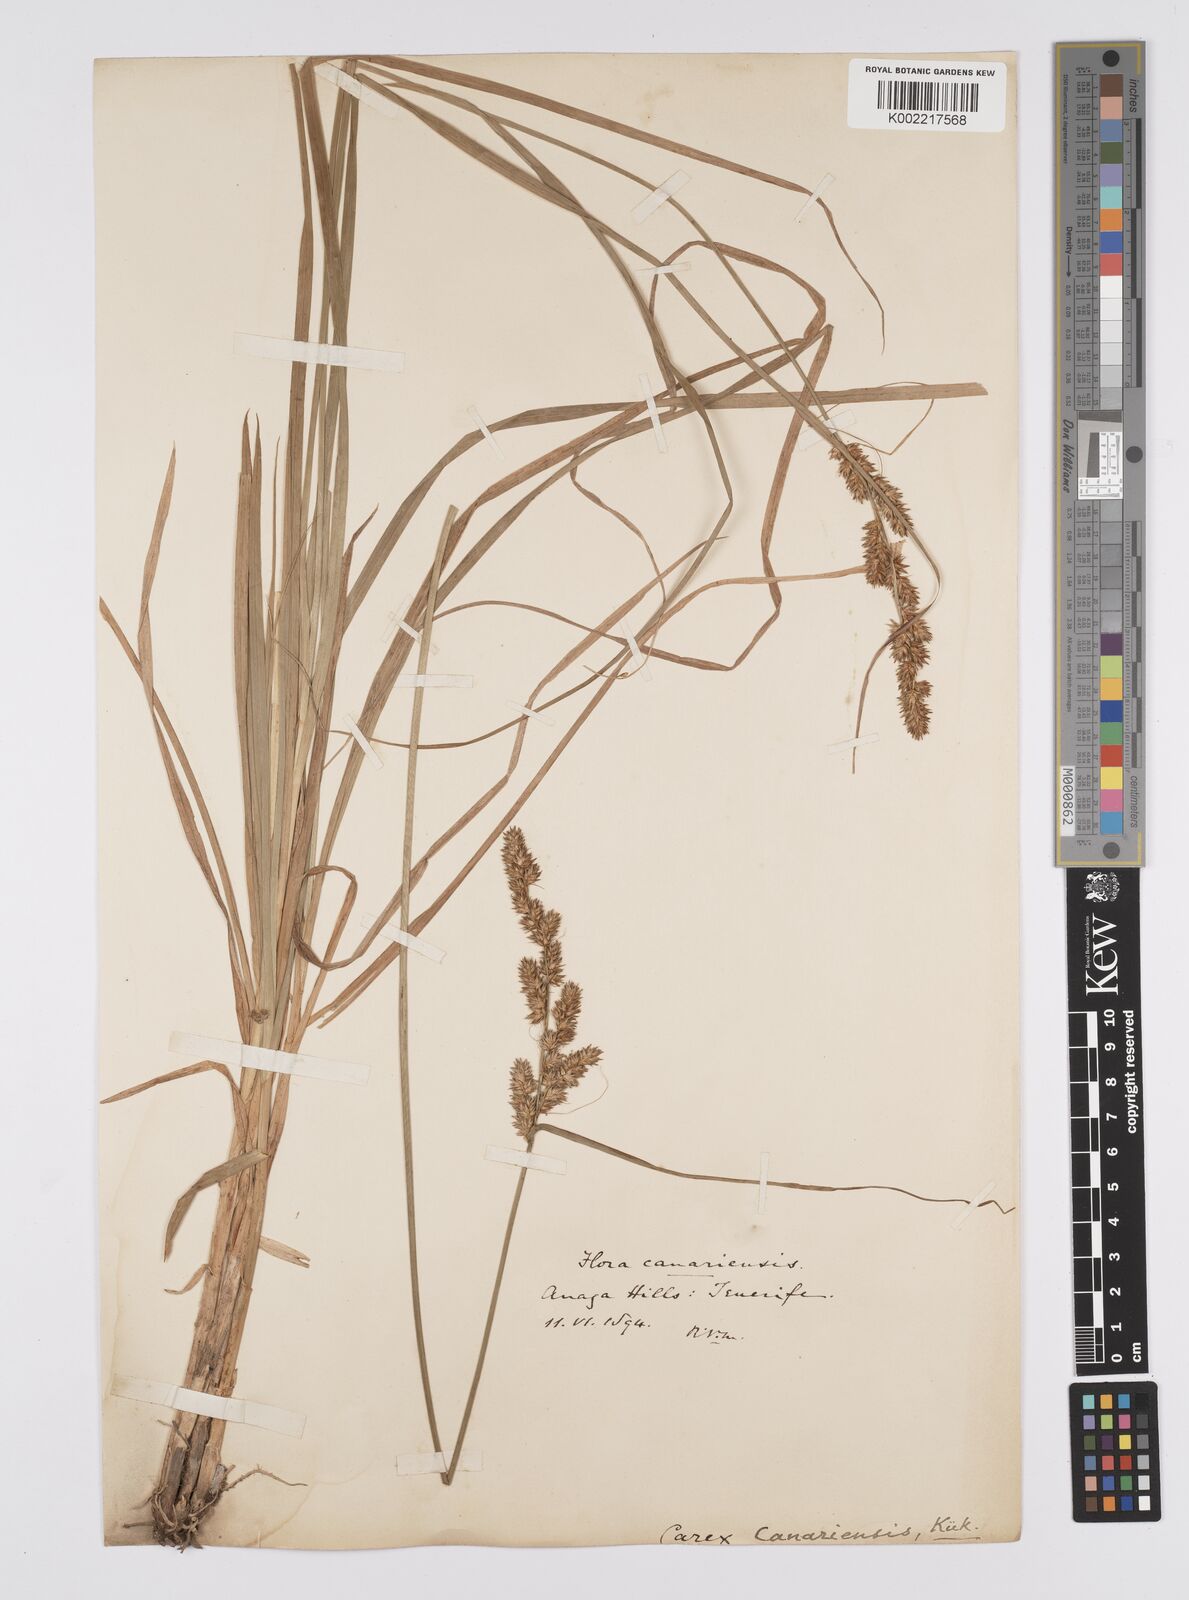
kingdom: Plantae
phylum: Tracheophyta
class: Liliopsida
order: Poales
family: Cyperaceae
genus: Carex
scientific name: Carex canariensis
